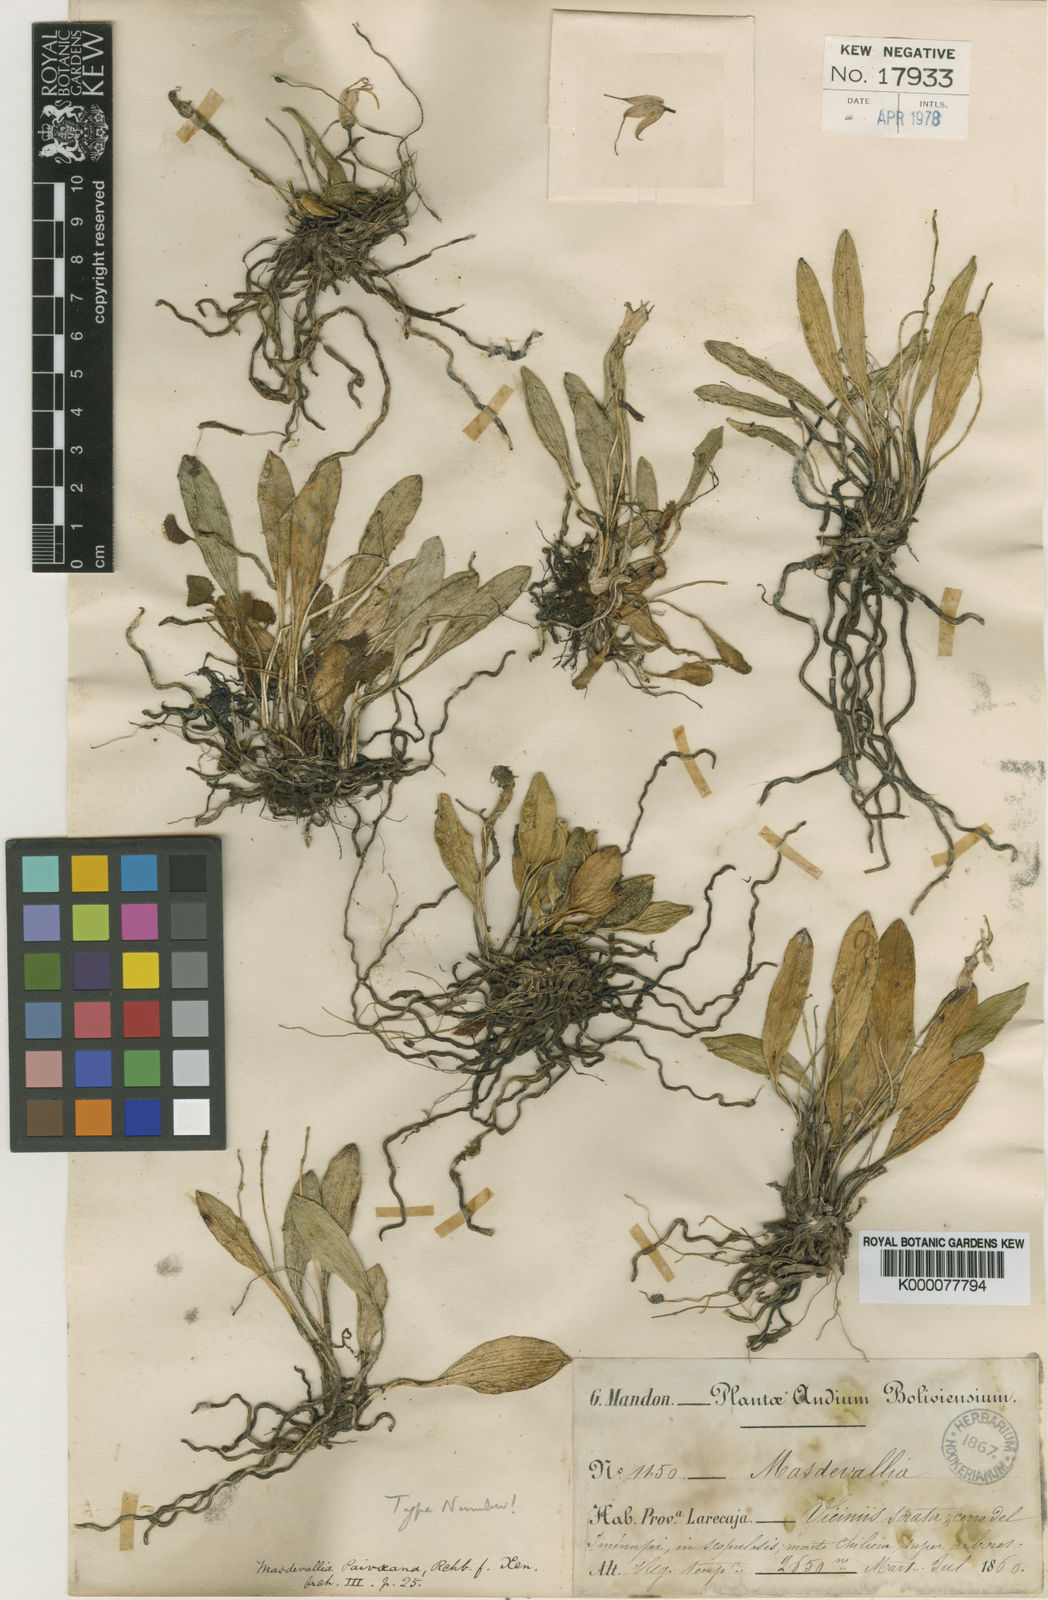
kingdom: Plantae
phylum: Tracheophyta
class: Liliopsida
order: Asparagales
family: Orchidaceae
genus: Masdevallia
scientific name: Masdevallia paivaeana
